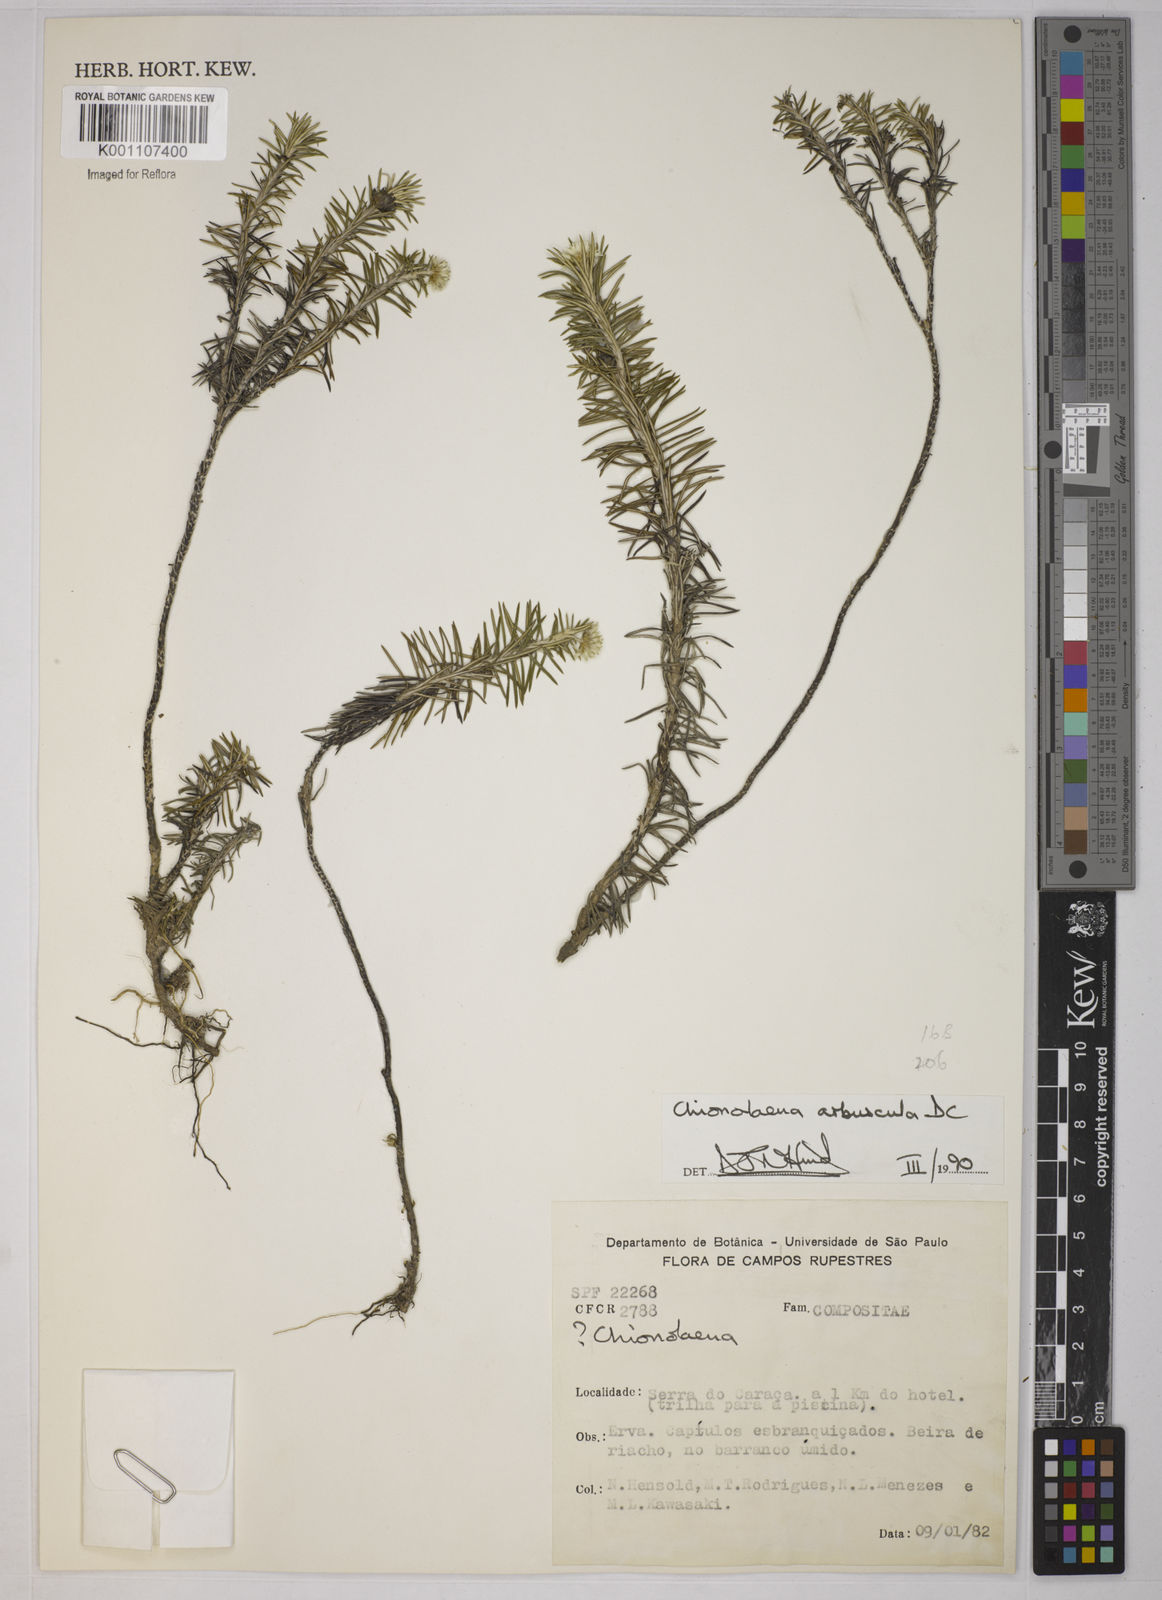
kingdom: Plantae
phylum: Tracheophyta
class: Magnoliopsida
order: Asterales
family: Asteraceae
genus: Chionolaena
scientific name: Chionolaena arbuscula
